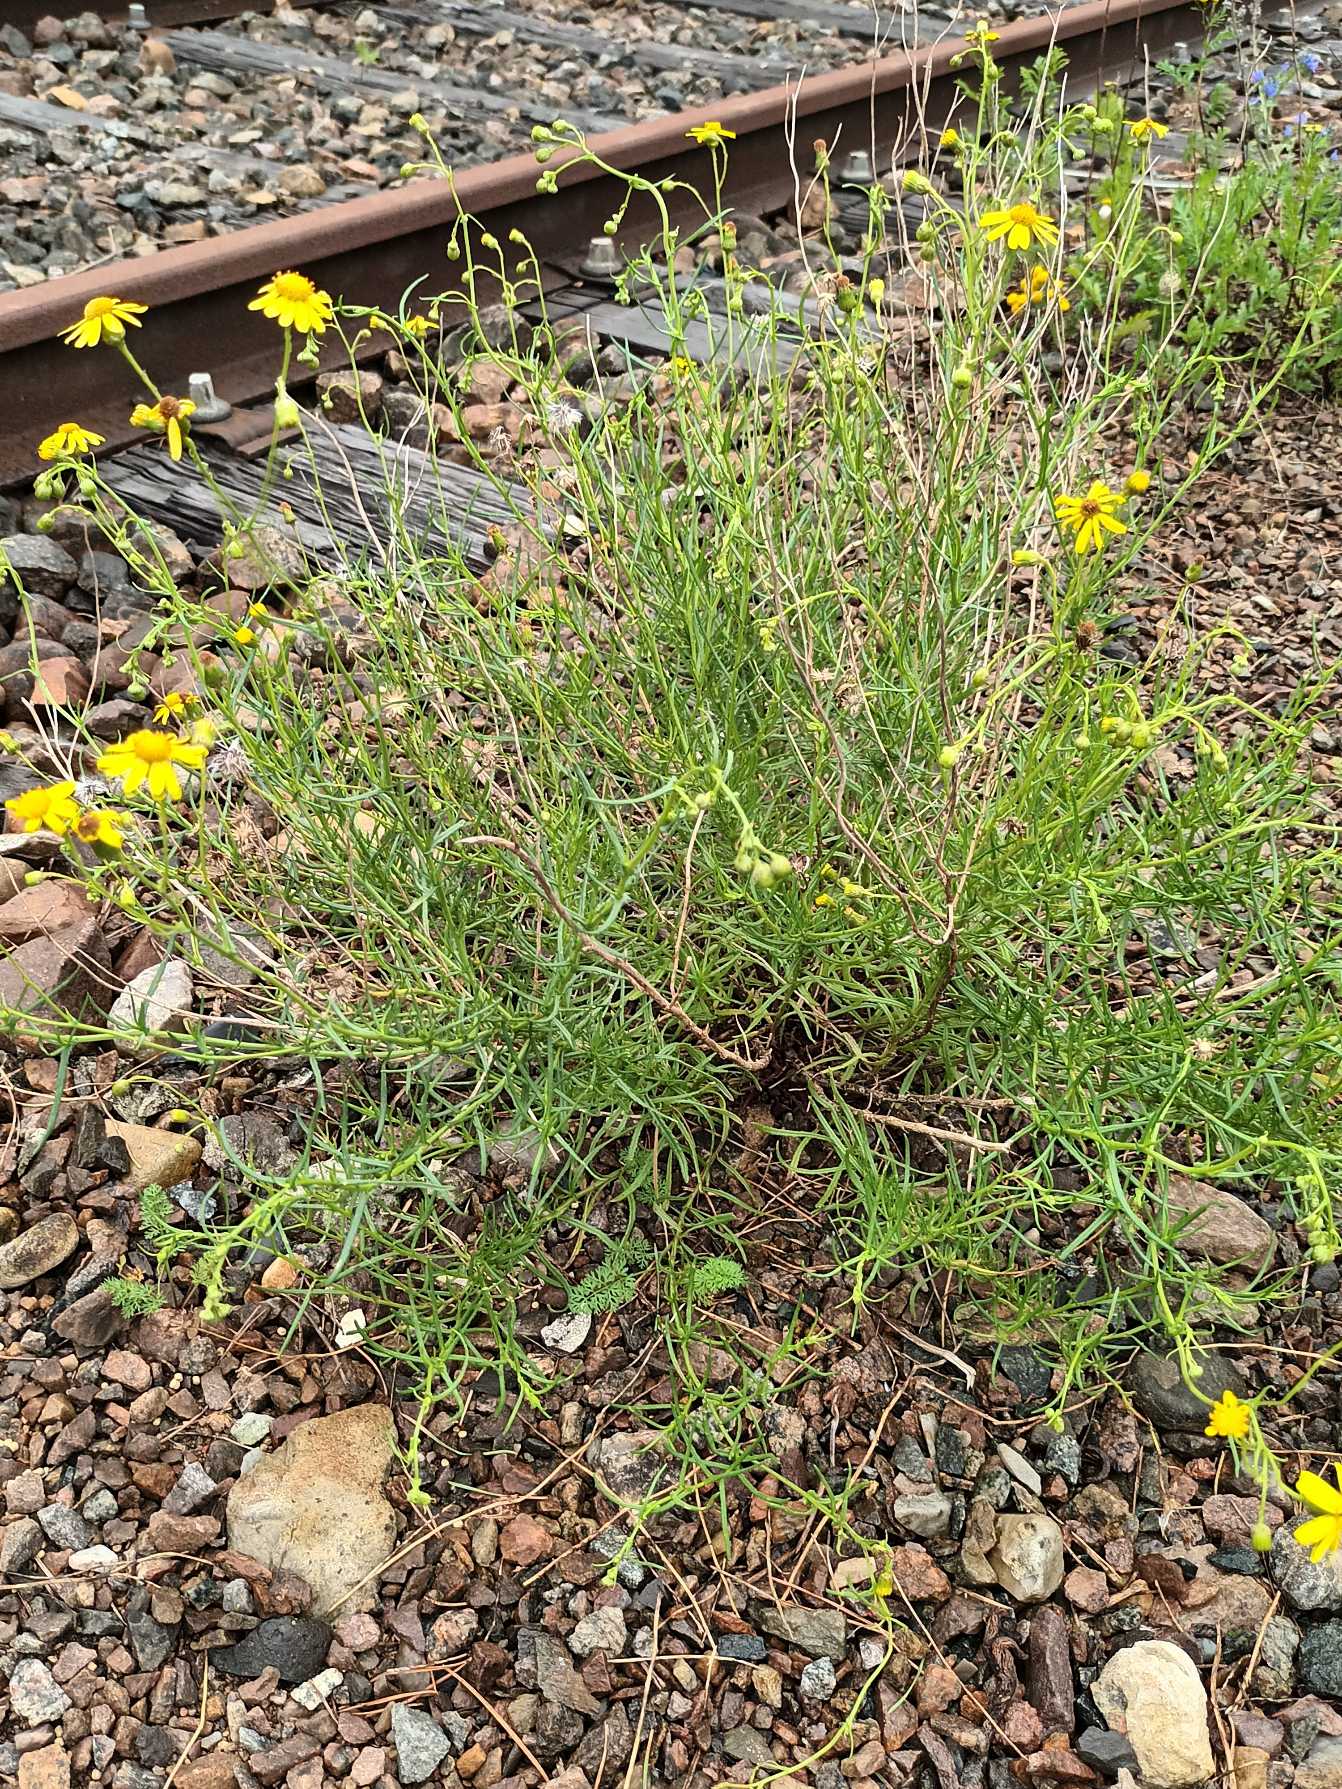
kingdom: Plantae
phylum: Tracheophyta
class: Magnoliopsida
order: Asterales
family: Asteraceae
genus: Senecio
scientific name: Senecio inaequidens
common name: Smalbladet brandbæger
